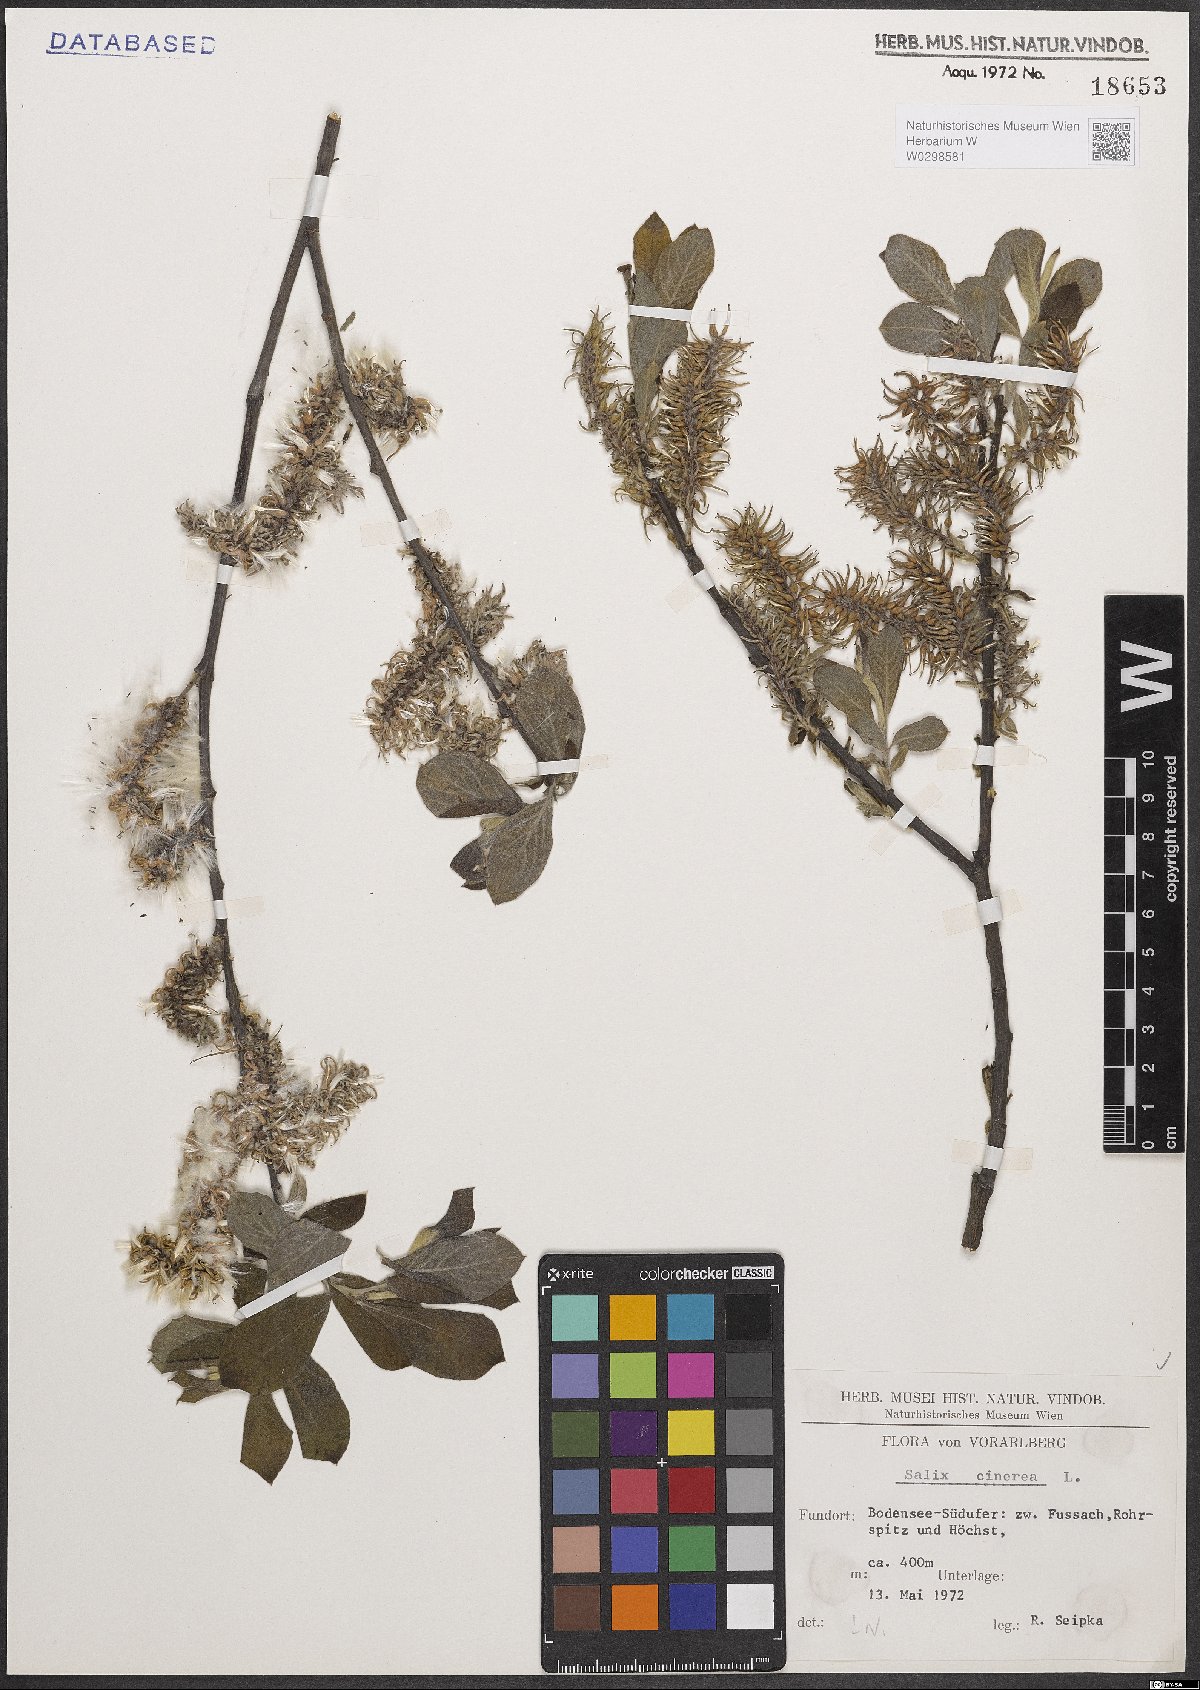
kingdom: Plantae
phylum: Tracheophyta
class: Magnoliopsida
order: Malpighiales
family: Salicaceae
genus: Salix
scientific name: Salix cinerea
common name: Common sallow
